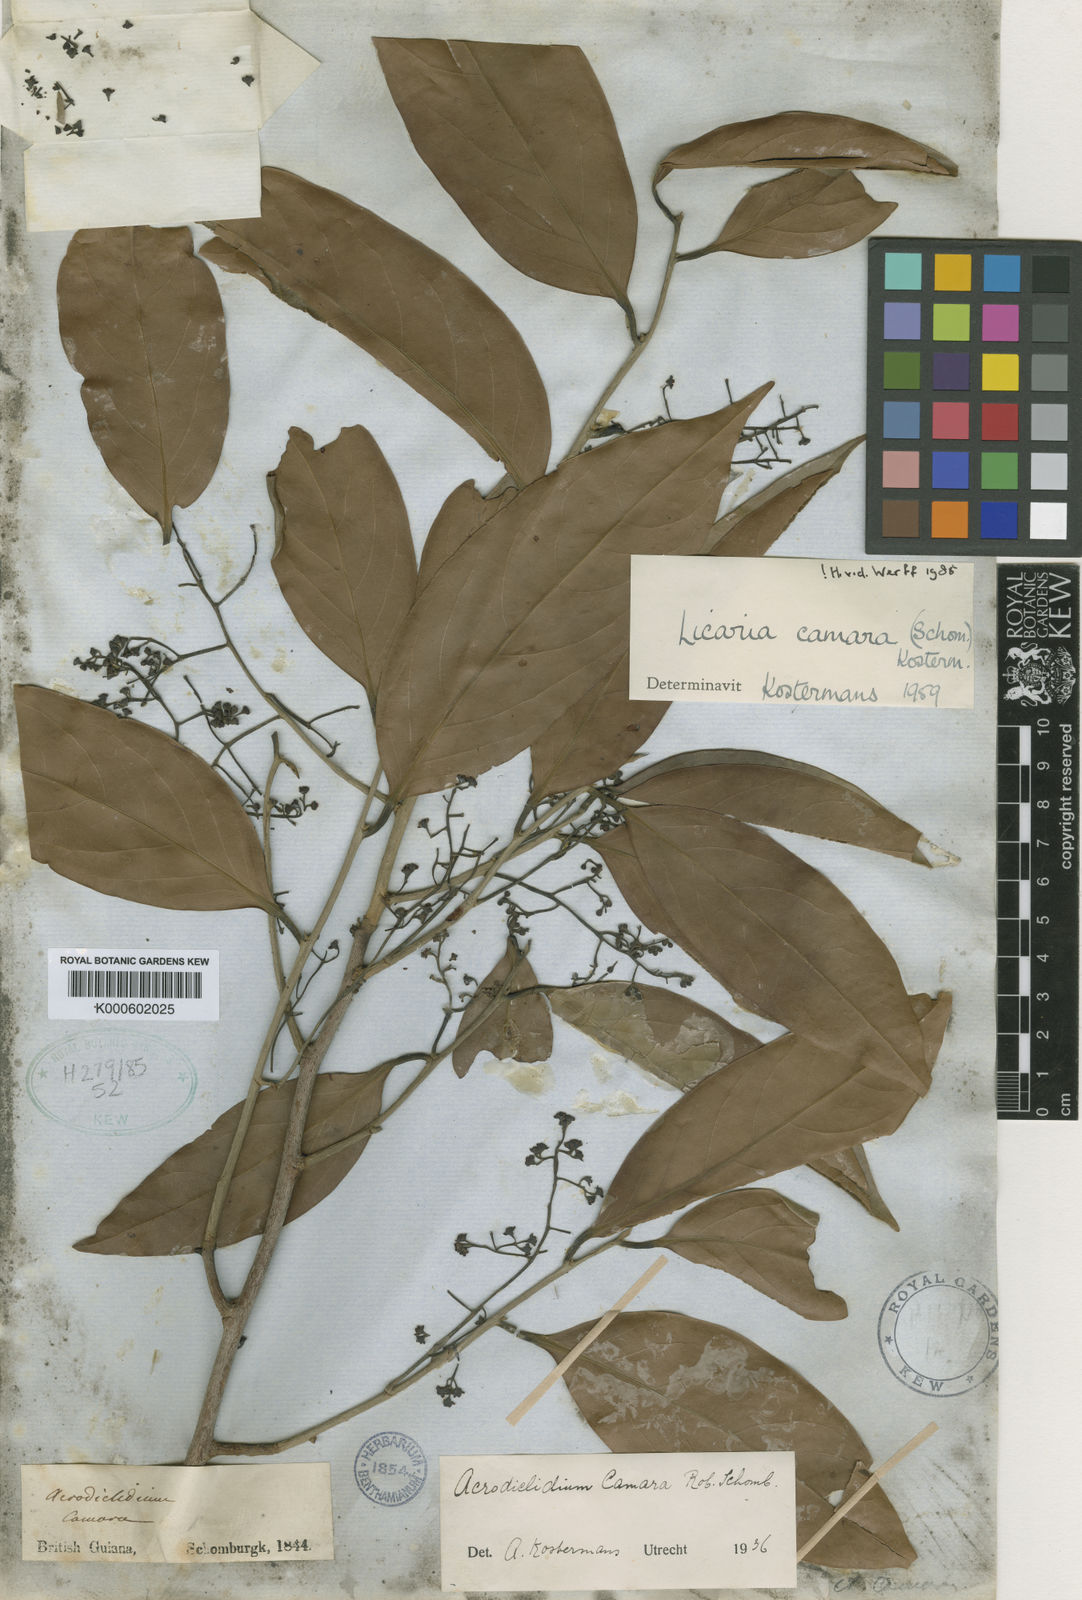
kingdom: Plantae
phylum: Tracheophyta
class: Magnoliopsida
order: Laurales
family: Lauraceae
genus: Licaria
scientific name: Licaria camara
